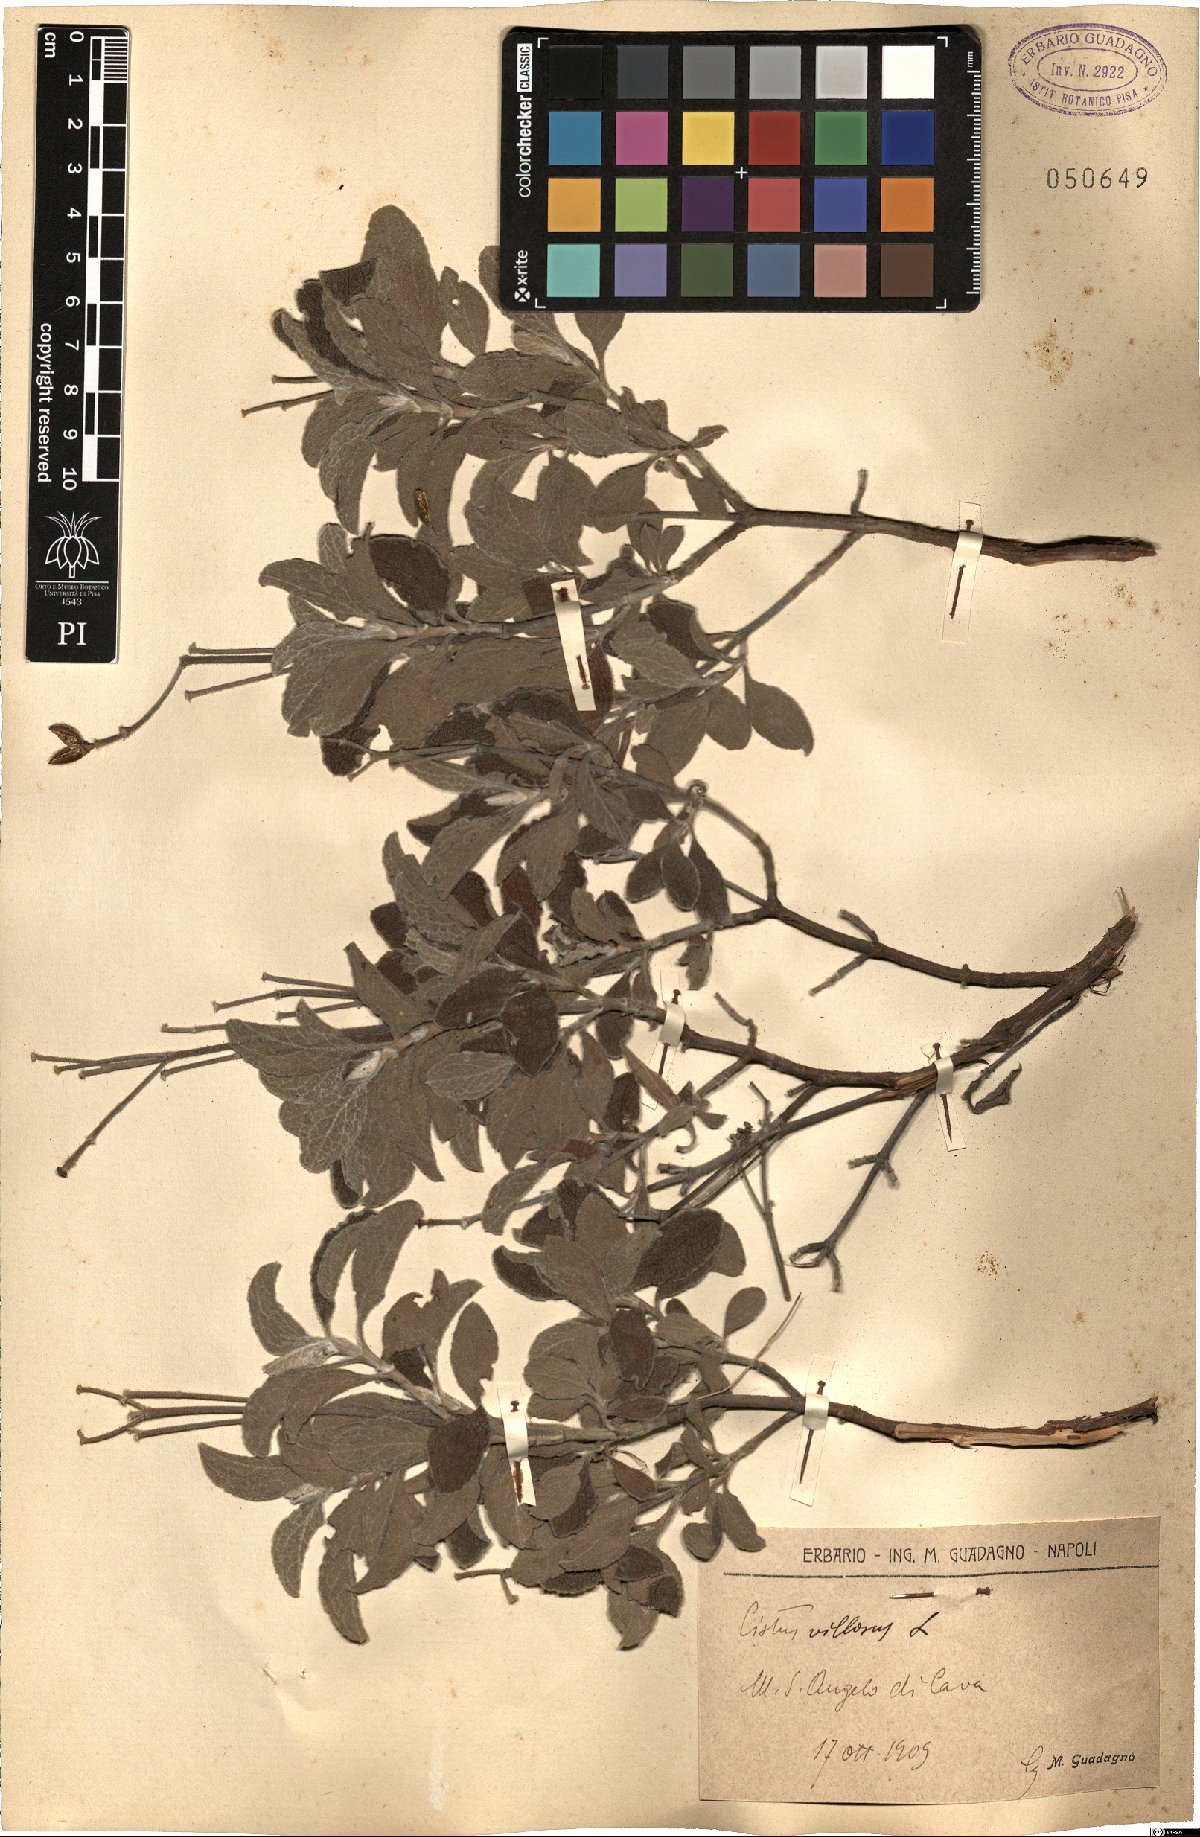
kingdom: Plantae
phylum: Tracheophyta
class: Magnoliopsida
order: Malvales
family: Cistaceae
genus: Cistus
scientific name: Cistus creticus
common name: Cretan rockrose
